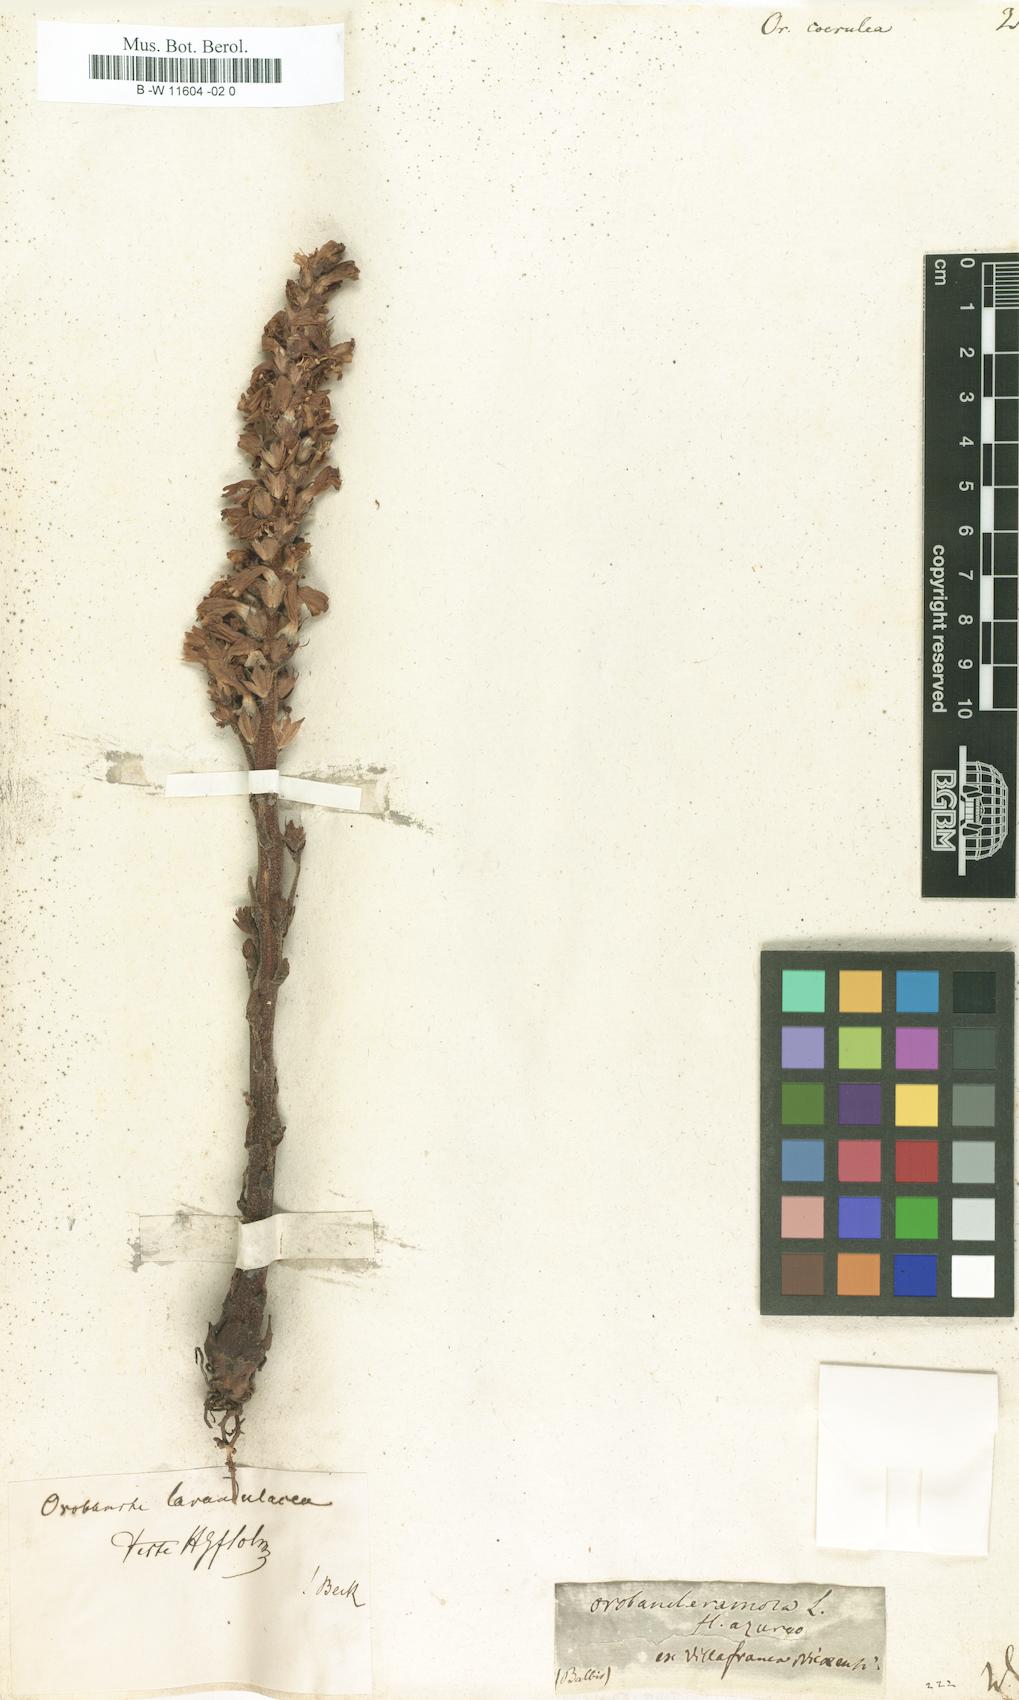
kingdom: Plantae
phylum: Tracheophyta
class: Magnoliopsida
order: Lamiales
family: Orobanchaceae
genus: Phelipanche
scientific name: Phelipanche purpurea
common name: Purple broomrape
